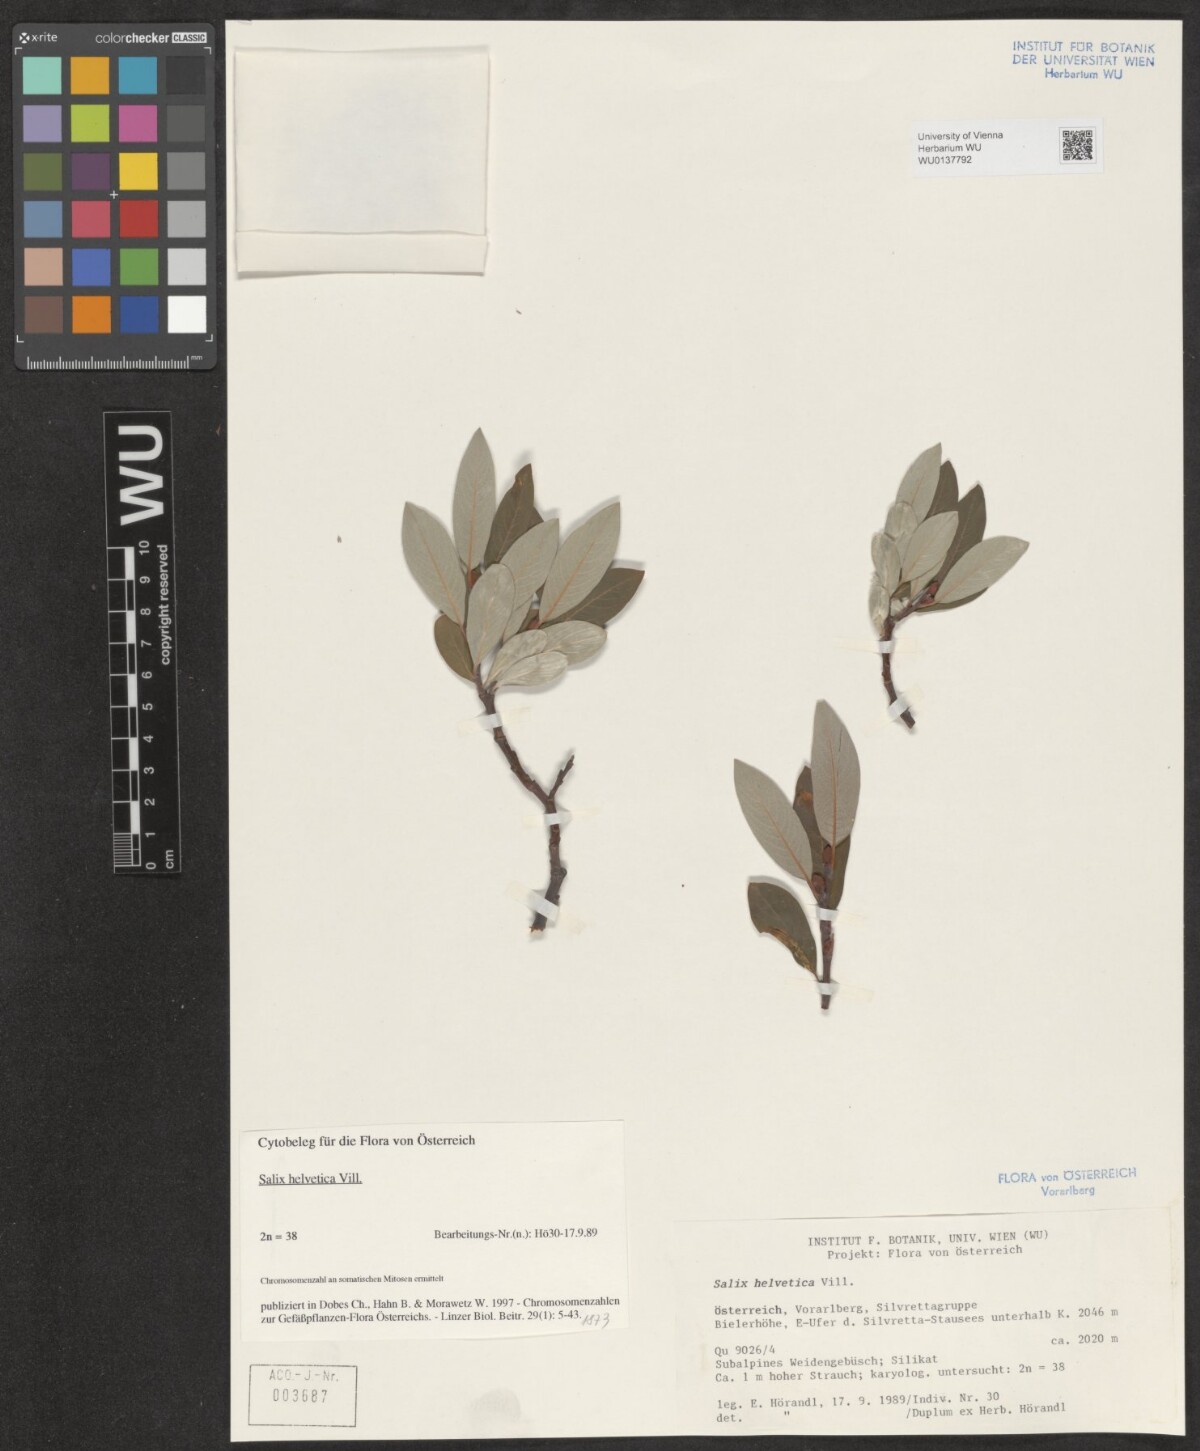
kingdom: Plantae
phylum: Tracheophyta
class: Magnoliopsida
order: Malpighiales
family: Salicaceae
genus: Salix
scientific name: Salix helvetica
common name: Swiss willow
